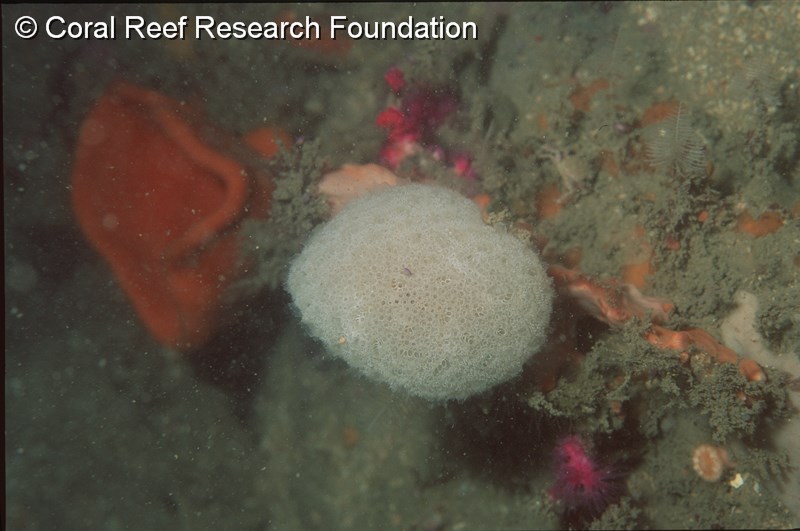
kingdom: Animalia
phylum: Chordata
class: Ascidiacea
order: Aplousobranchia
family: Polyclinidae
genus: Aplidium
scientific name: Aplidium flavolineatum
